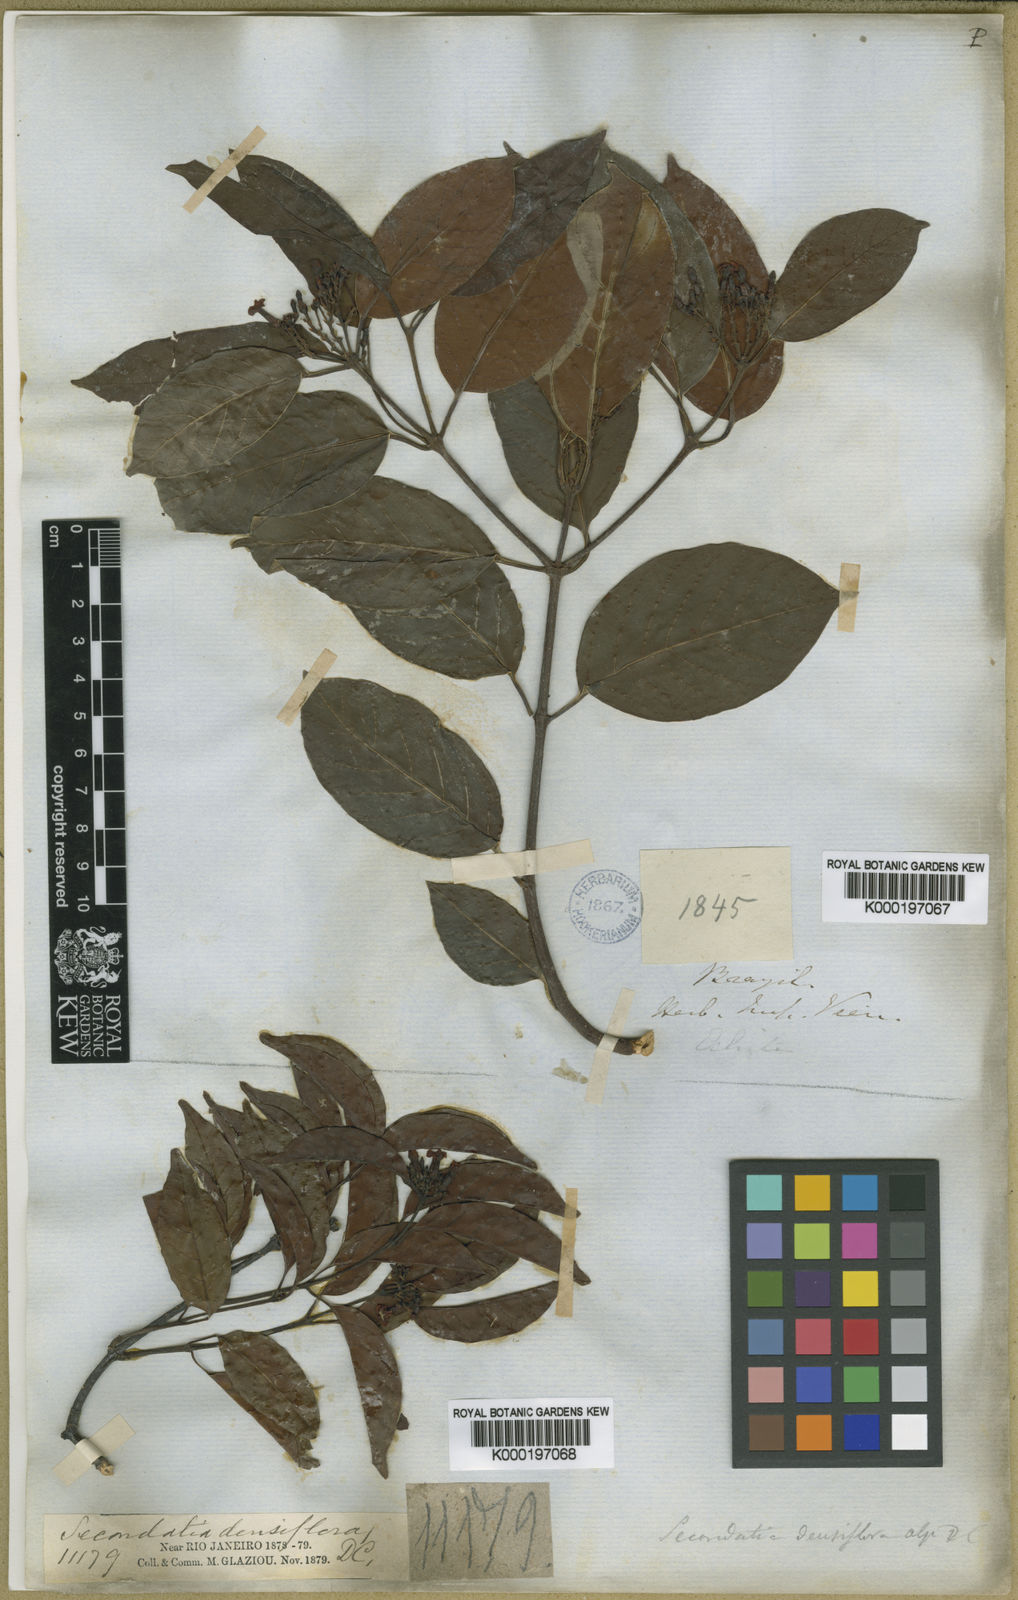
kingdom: Plantae
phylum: Tracheophyta
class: Magnoliopsida
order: Gentianales
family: Apocynaceae
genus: Secondatia
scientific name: Secondatia densiflora
